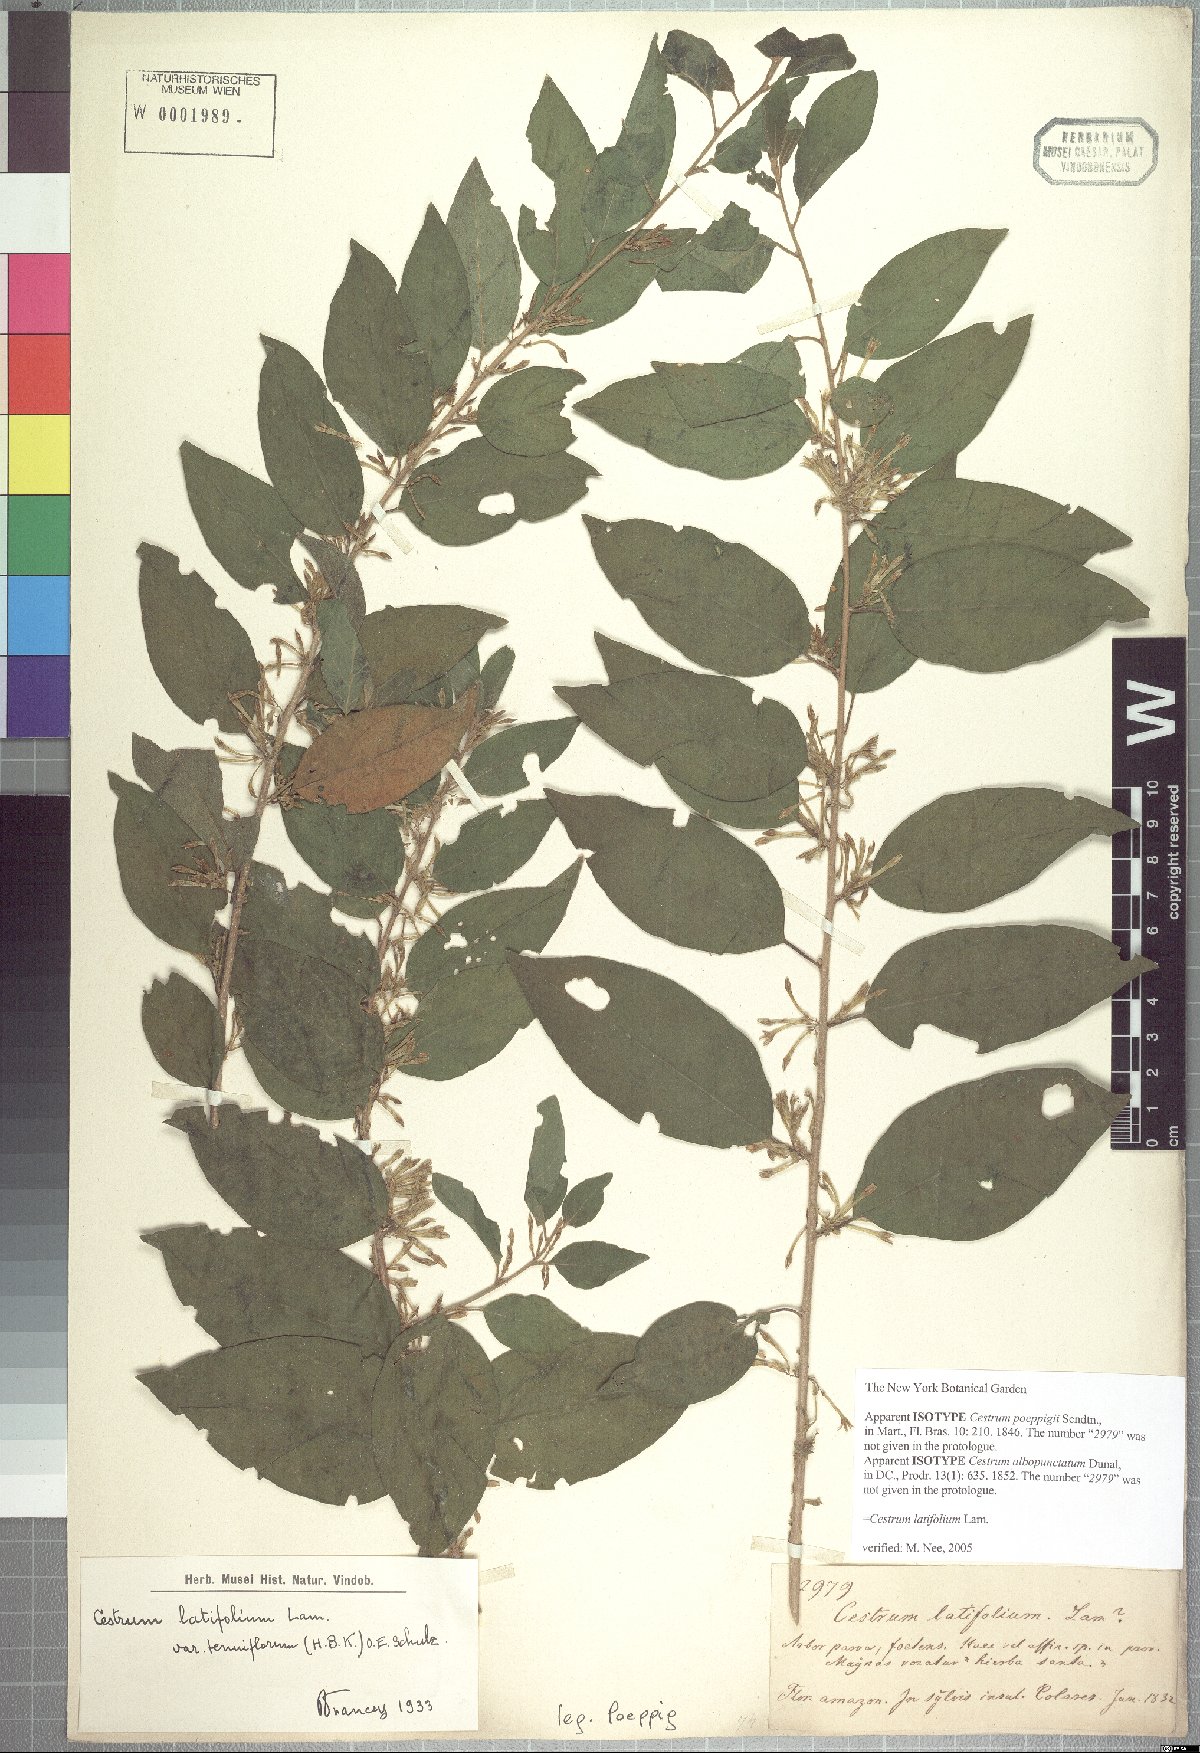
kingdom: Plantae
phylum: Tracheophyta
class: Magnoliopsida
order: Solanales
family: Solanaceae
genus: Cestrum
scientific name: Cestrum latifolium
